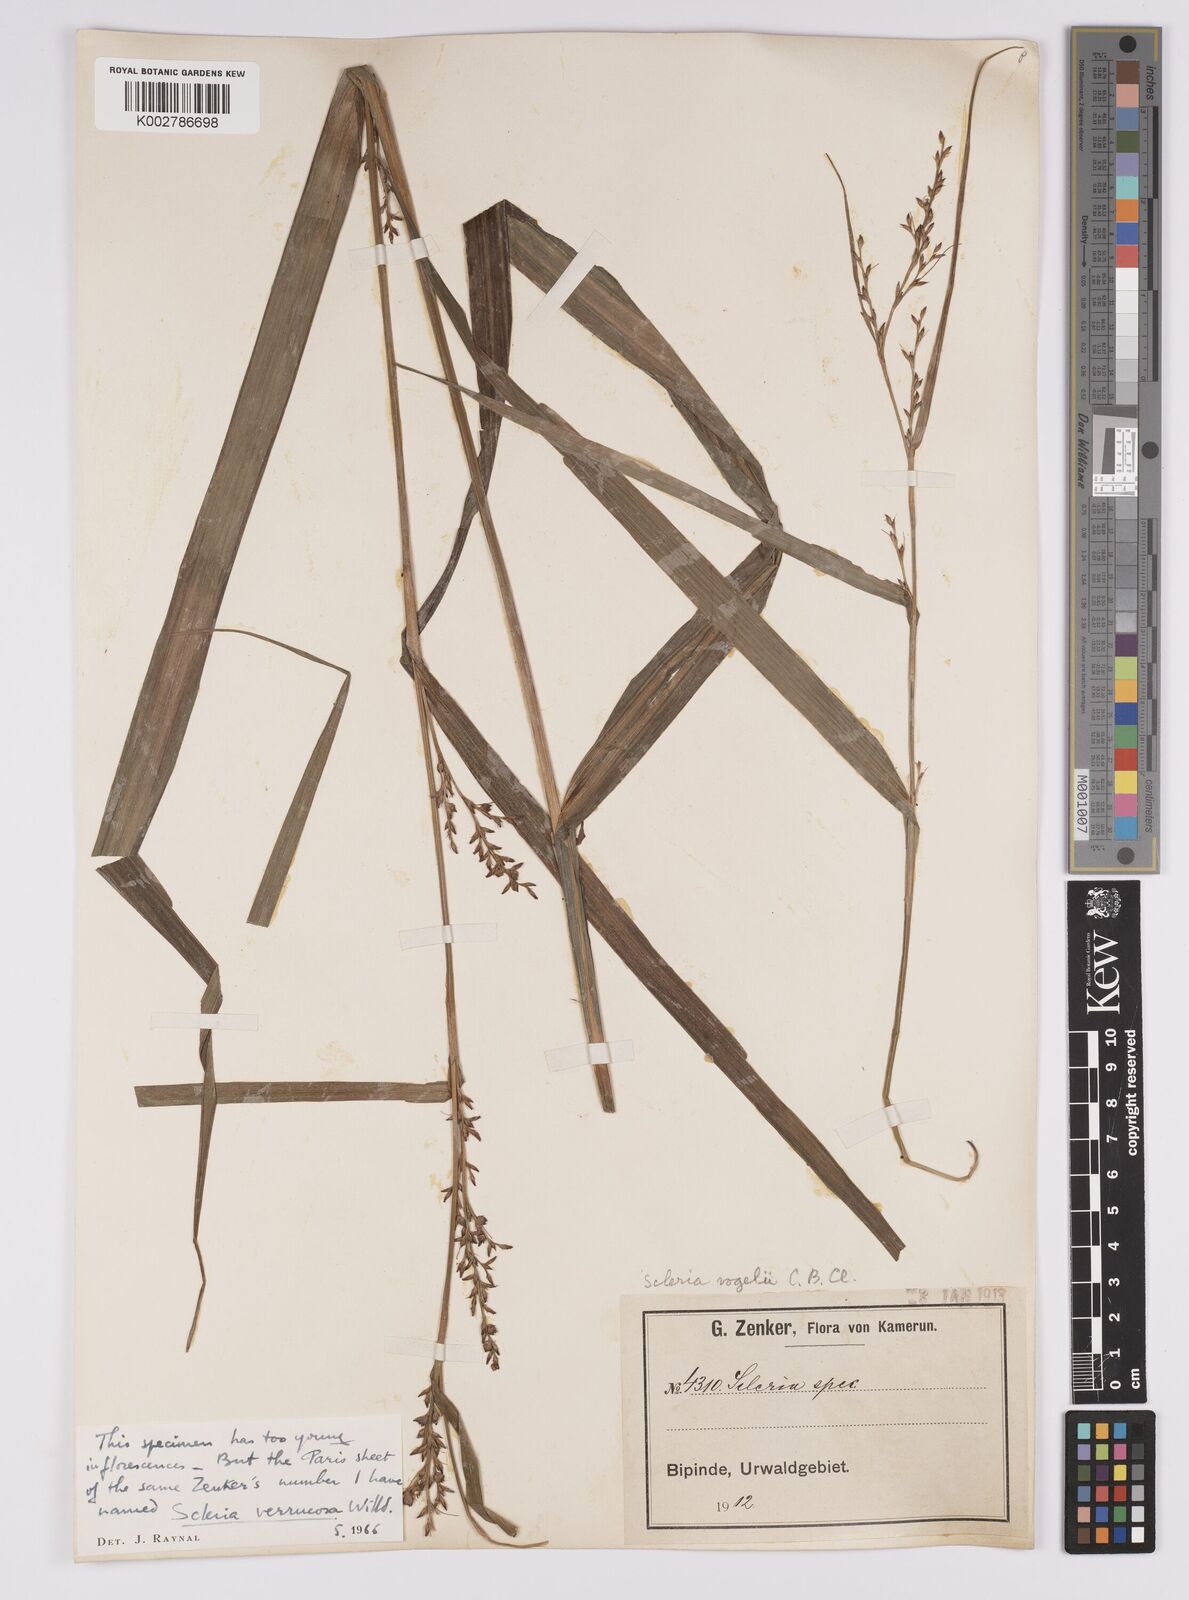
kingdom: Plantae
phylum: Tracheophyta
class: Liliopsida
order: Poales
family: Cyperaceae
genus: Scleria
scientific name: Scleria verrucosa
